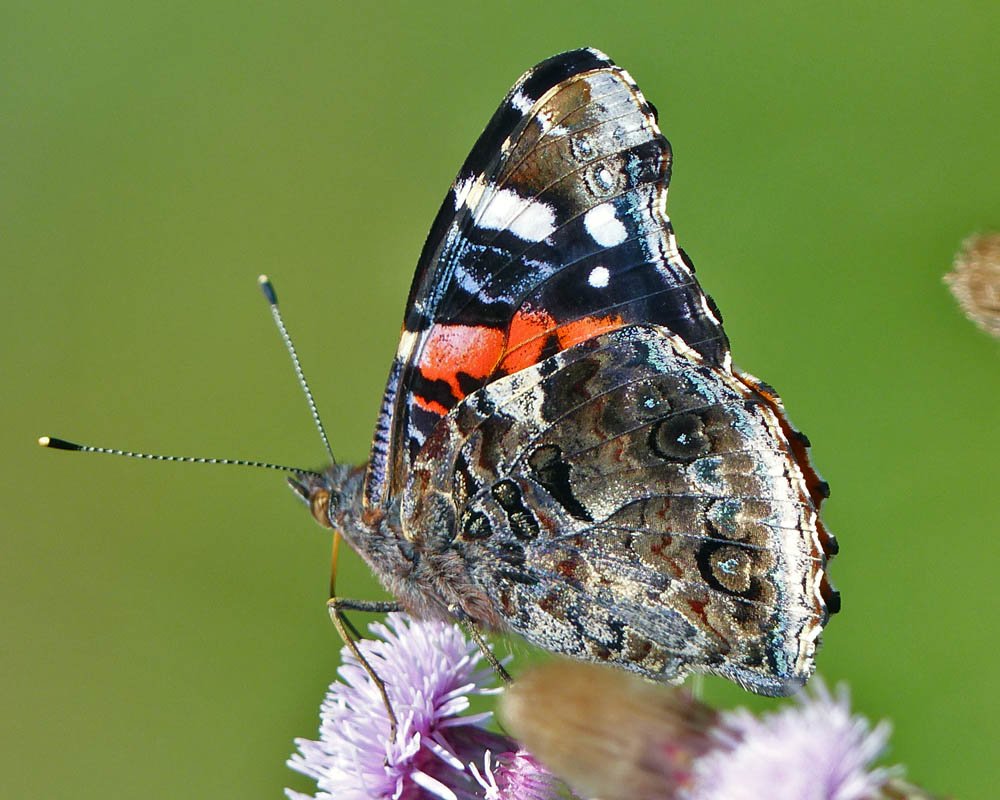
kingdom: Animalia
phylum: Arthropoda
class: Insecta
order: Lepidoptera
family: Nymphalidae
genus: Vanessa
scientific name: Vanessa atalanta
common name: Red Admiral
